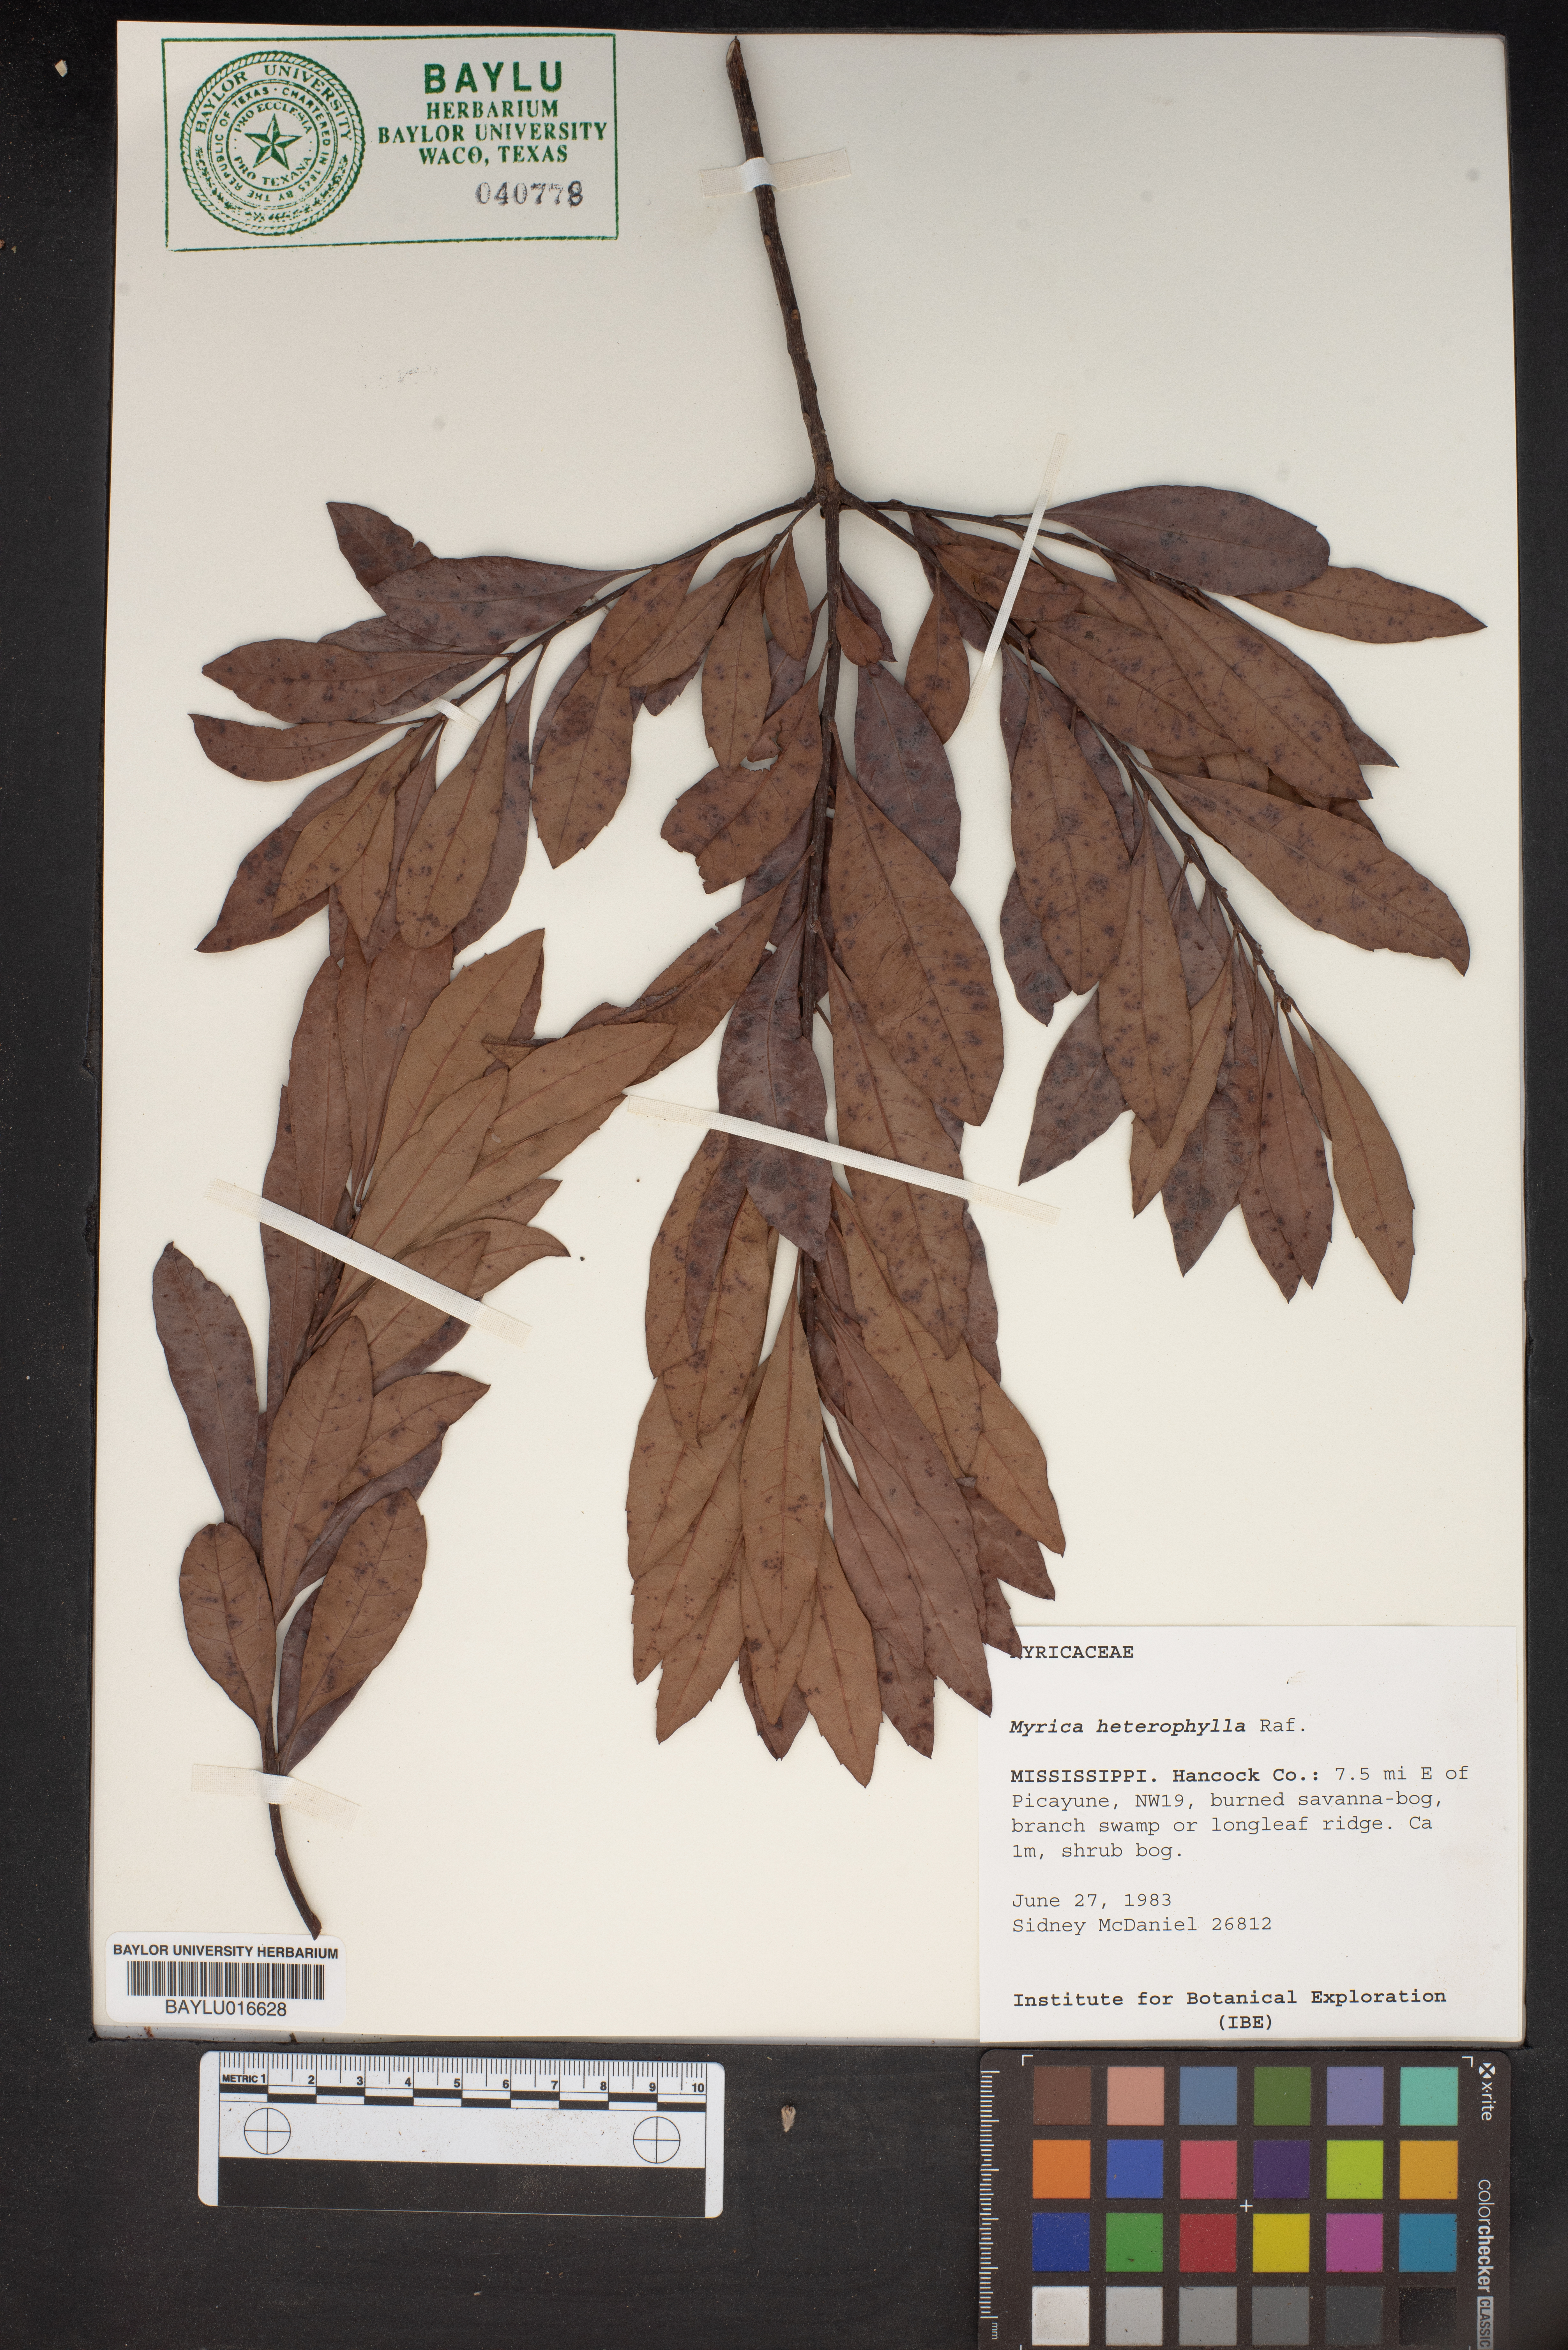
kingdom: Plantae
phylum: Tracheophyta
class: Magnoliopsida
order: Fagales
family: Myricaceae
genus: Morella
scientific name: Morella caroliniensis
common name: Evergreen bayberry
